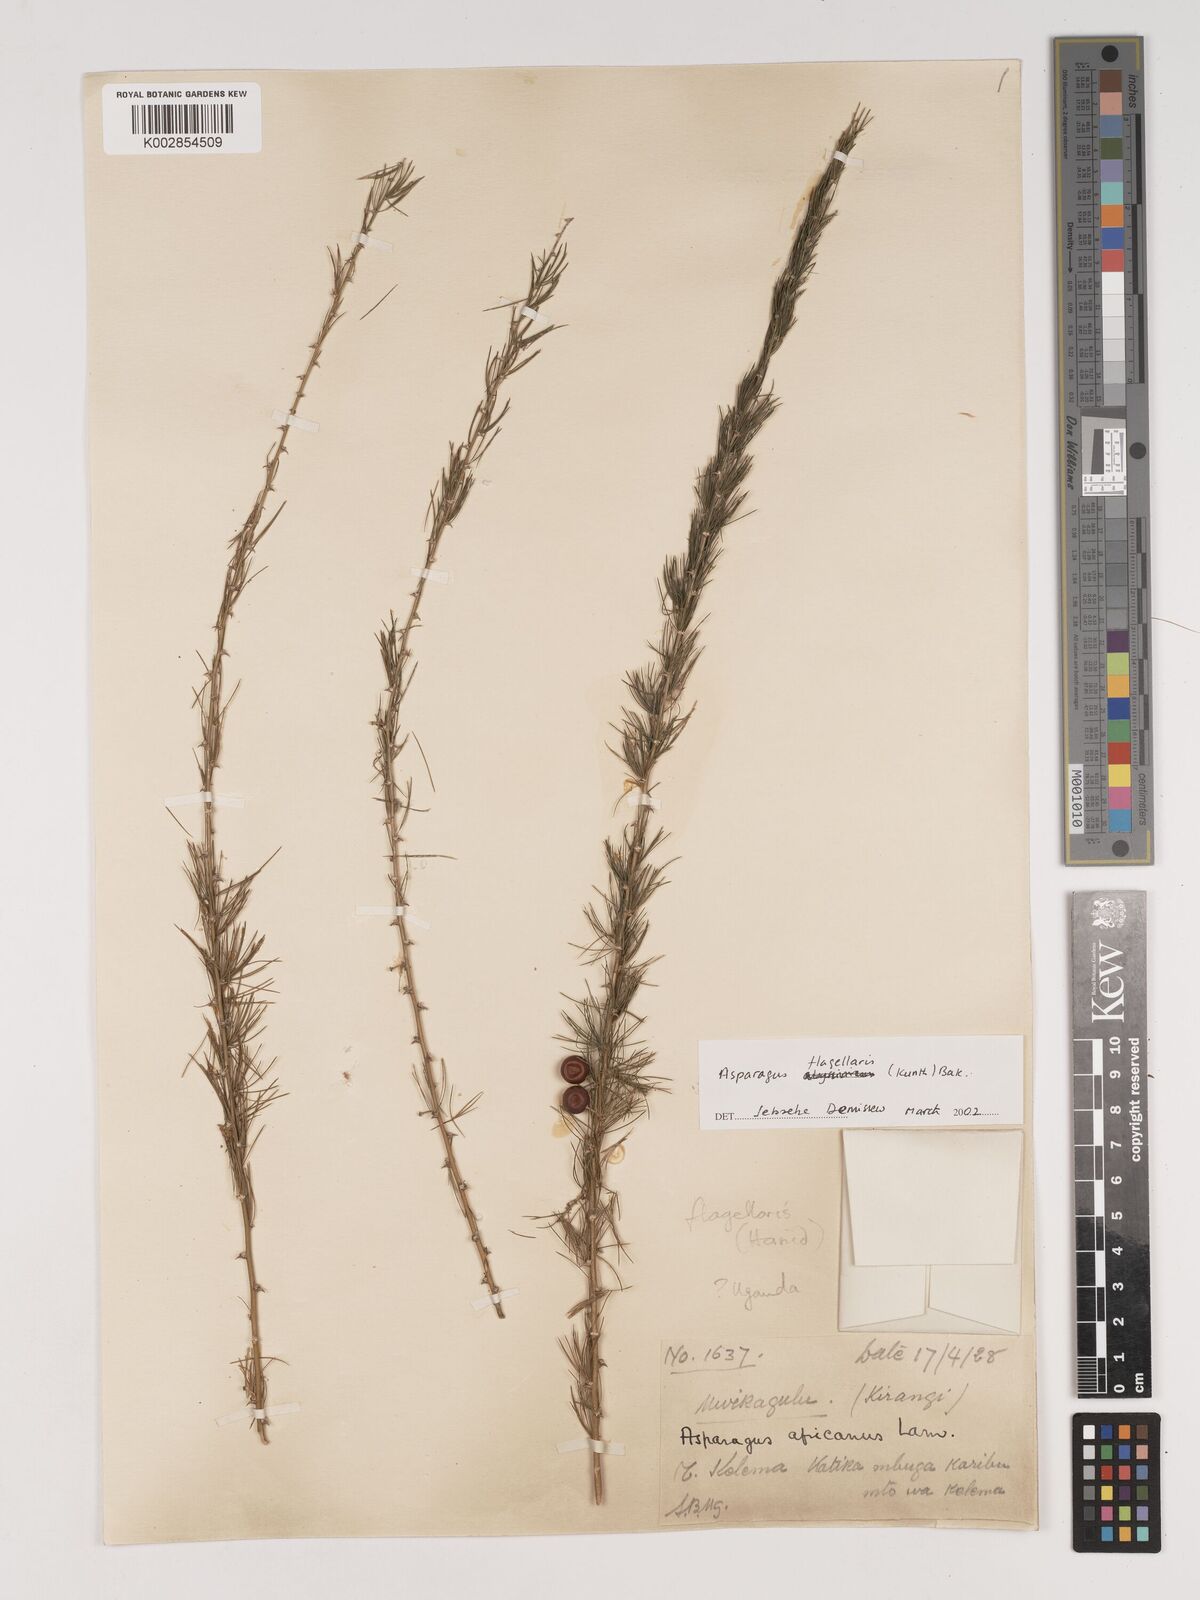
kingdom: Plantae
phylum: Tracheophyta
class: Liliopsida
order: Asparagales
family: Asparagaceae
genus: Asparagus
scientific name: Asparagus flagellaris
